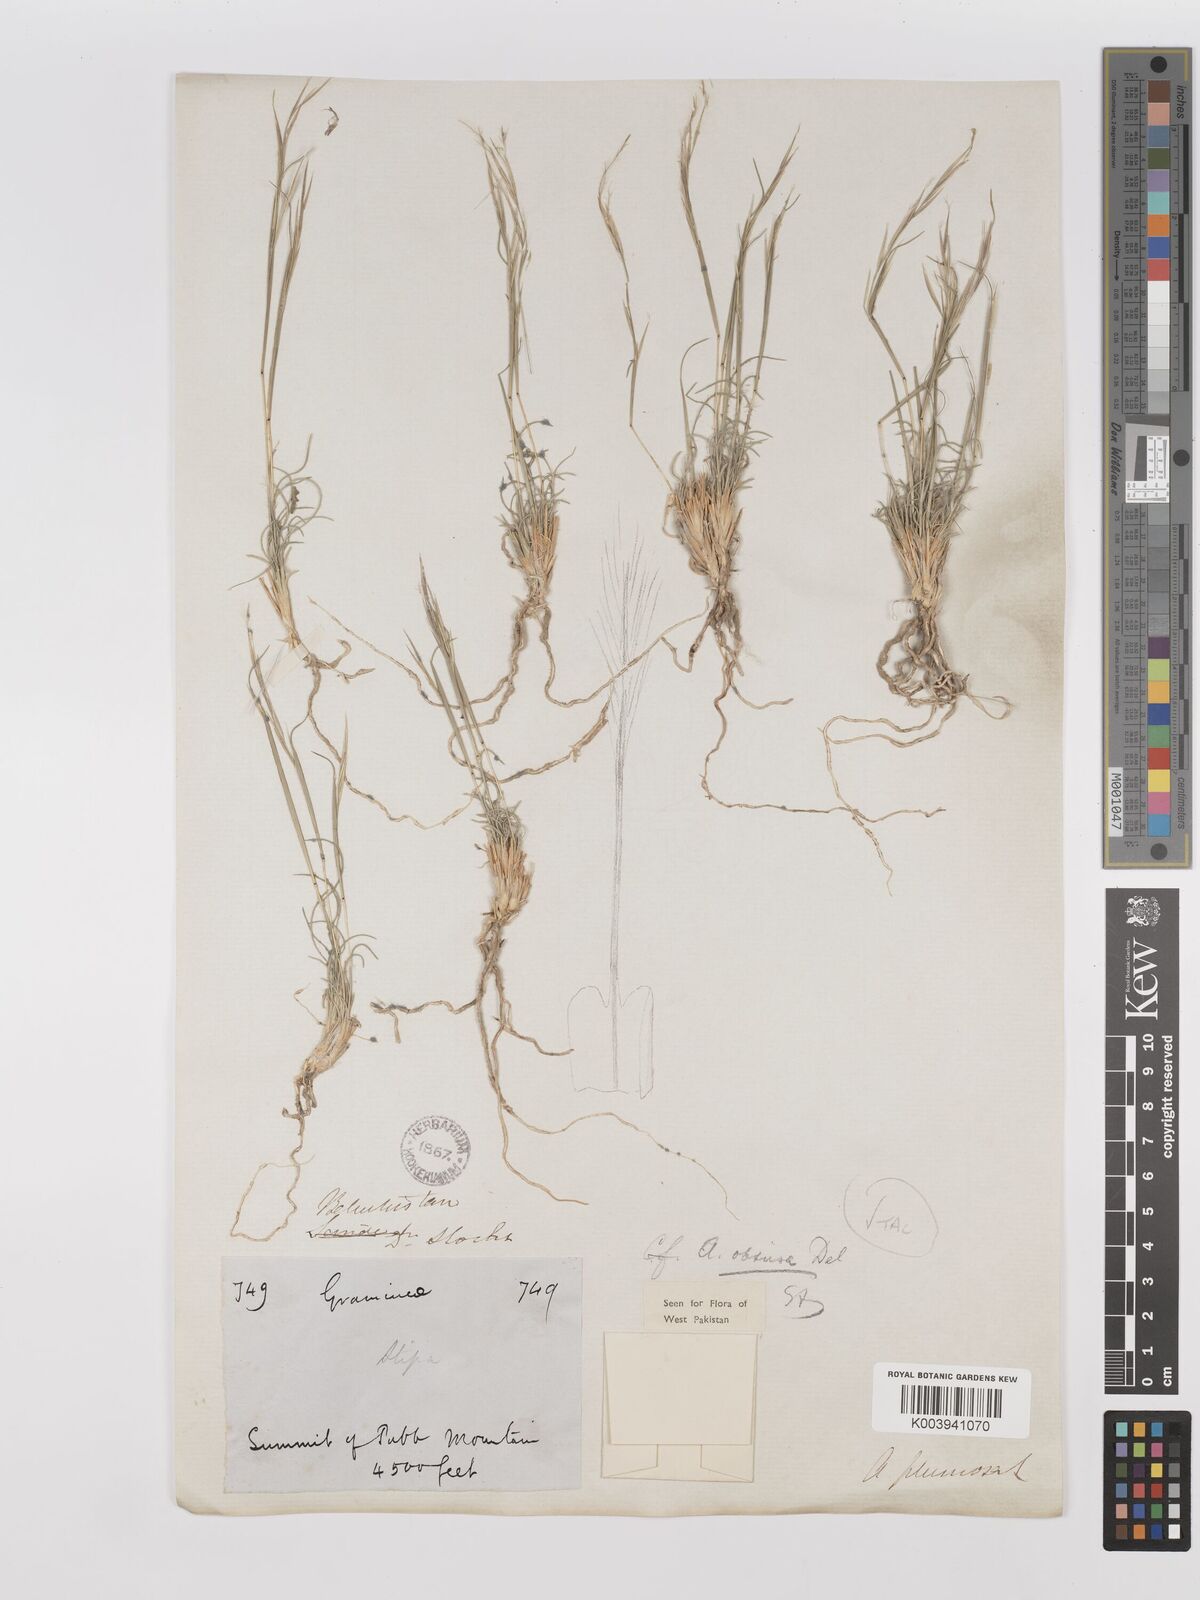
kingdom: Plantae
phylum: Tracheophyta
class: Liliopsida
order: Poales
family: Poaceae
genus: Stipagrostis
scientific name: Stipagrostis obtusa
